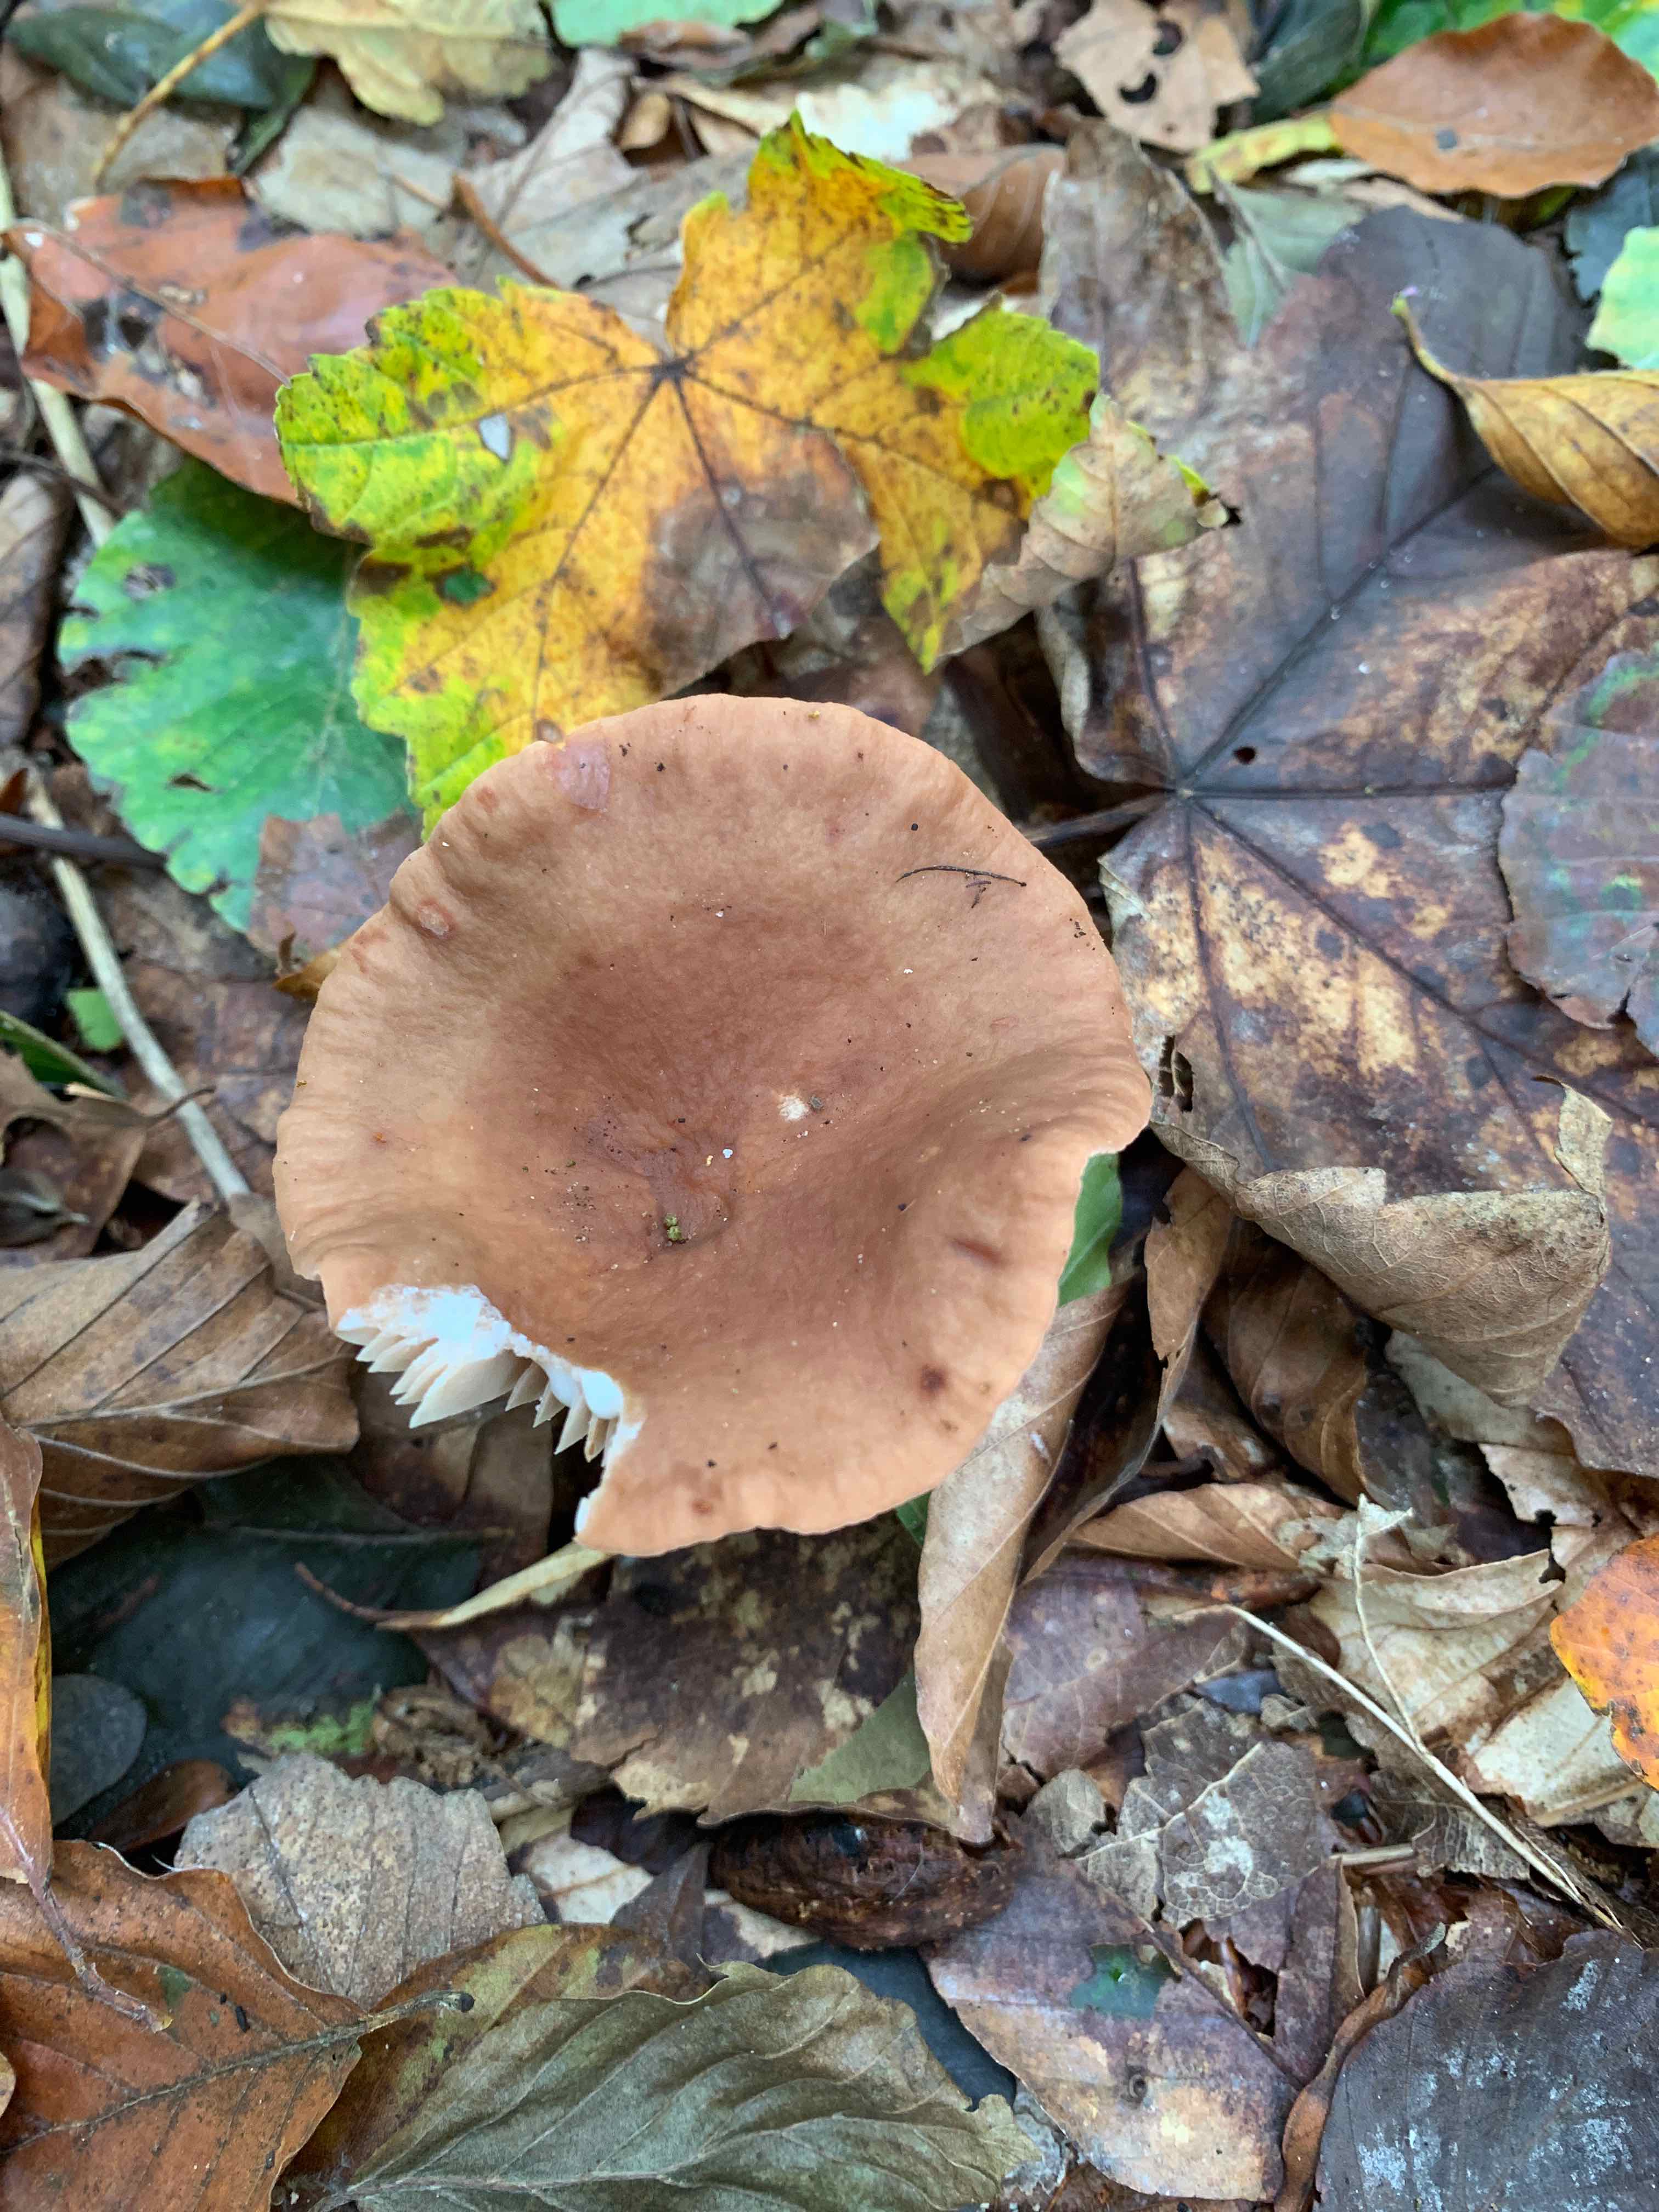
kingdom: Fungi
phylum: Basidiomycota
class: Agaricomycetes
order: Russulales
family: Russulaceae
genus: Lactarius
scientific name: Lactarius subdulcis
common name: sødlig mælkehat
